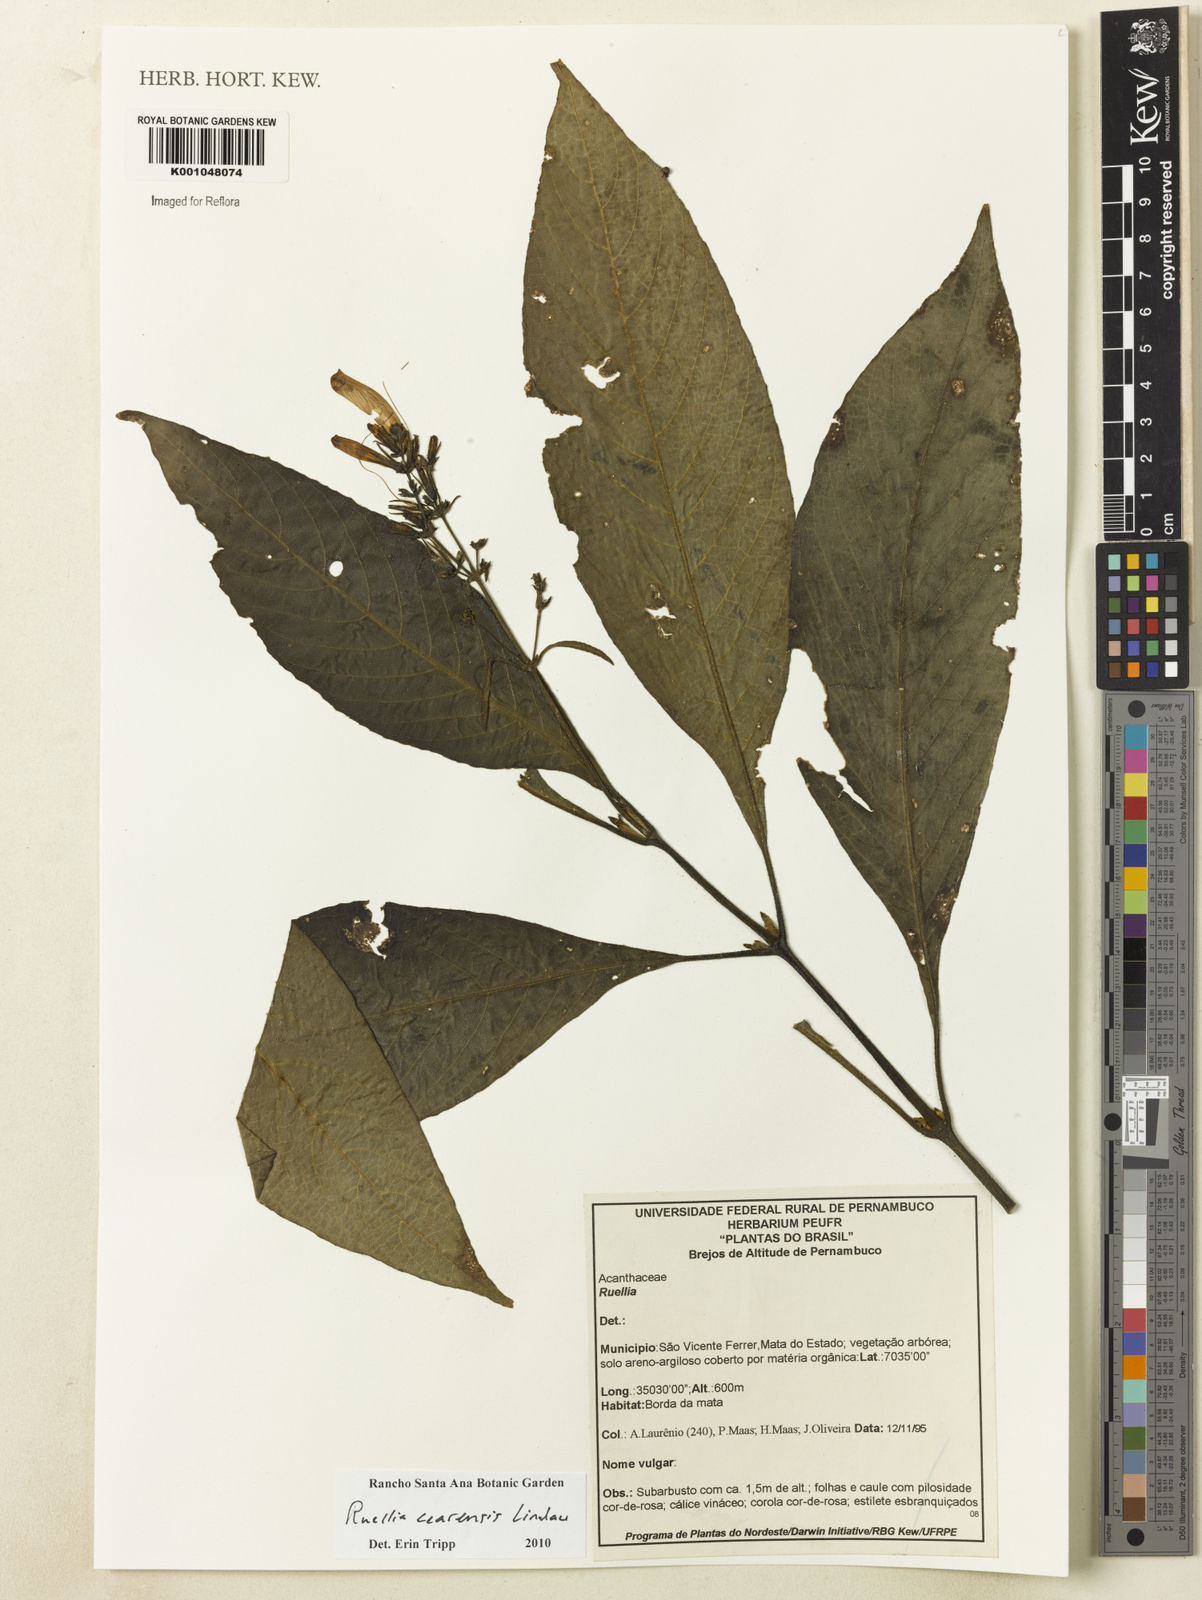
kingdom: Plantae
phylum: Tracheophyta
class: Magnoliopsida
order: Lamiales
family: Acanthaceae
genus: Ruellia
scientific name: Ruellia cearensis
